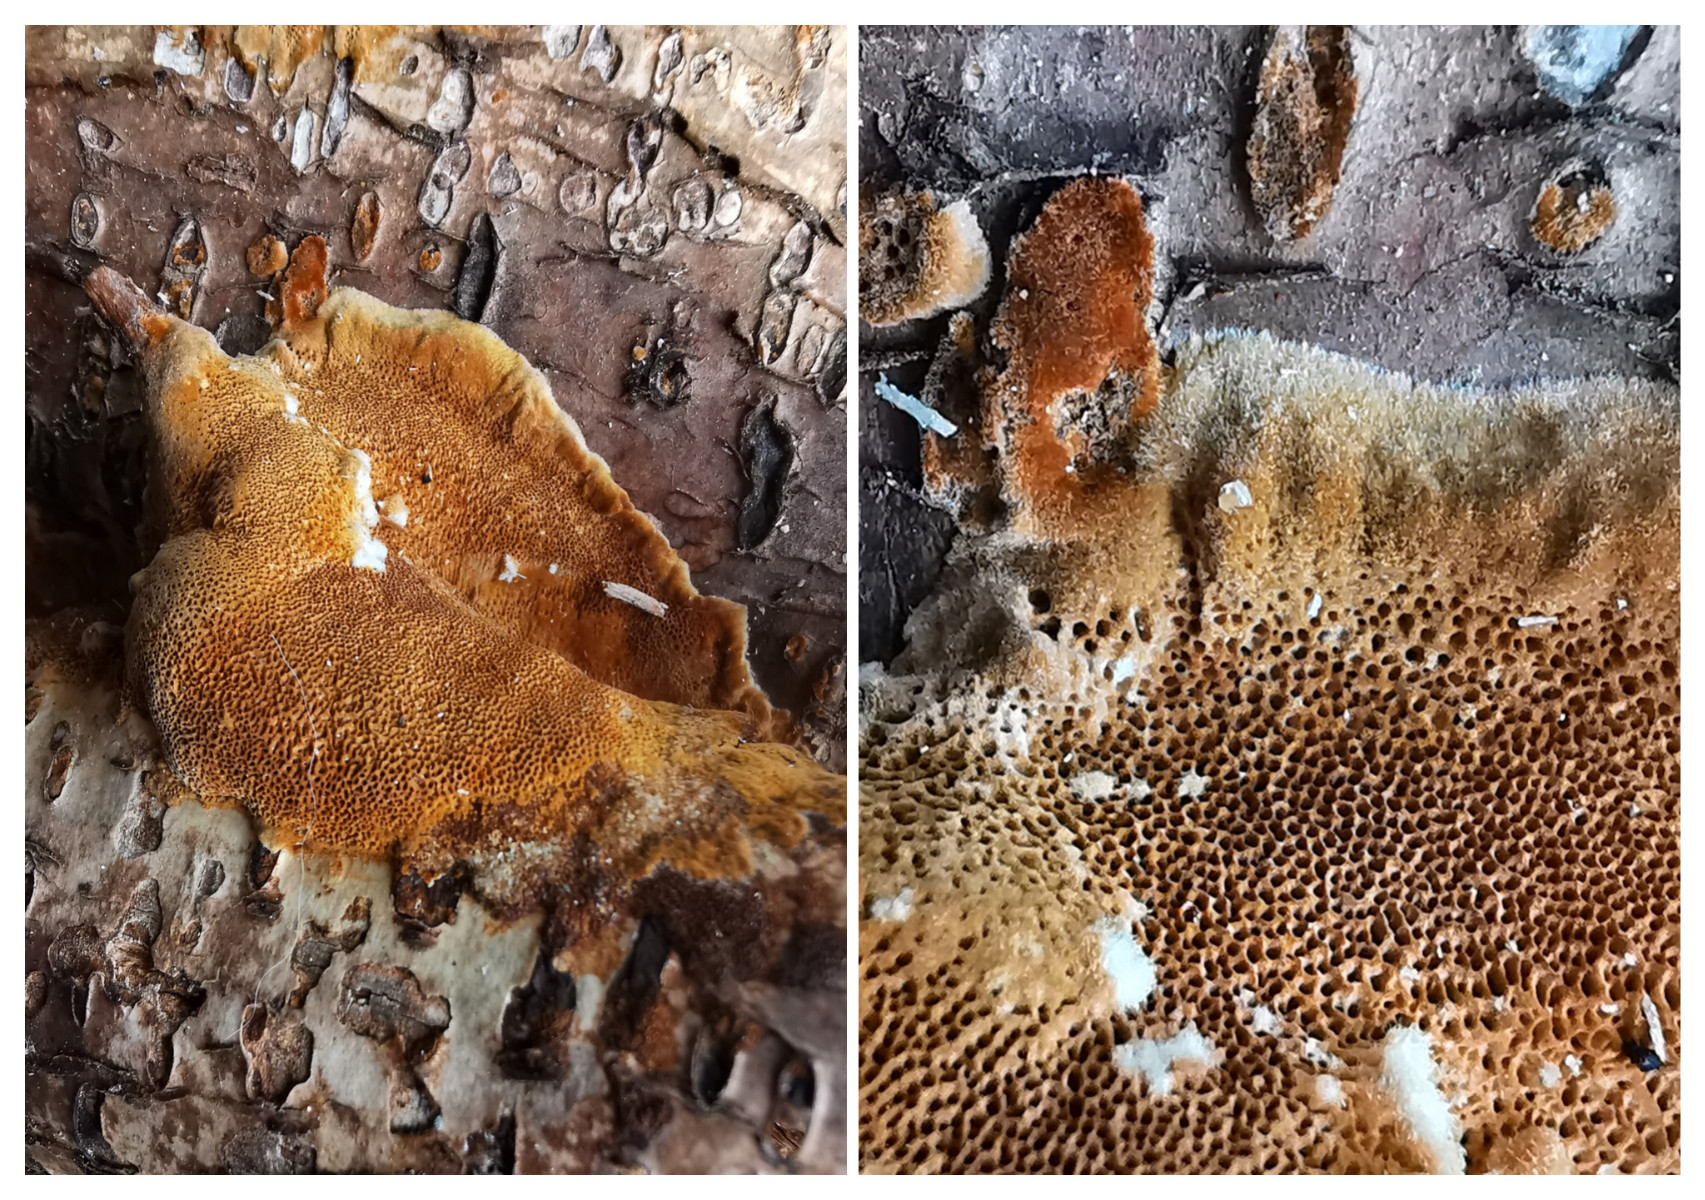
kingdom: Fungi
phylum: Basidiomycota
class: Agaricomycetes
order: Hymenochaetales
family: Hymenochaetaceae
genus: Fuscoporia
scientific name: Fuscoporia ferrea
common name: skorpe-ildporesvamp
